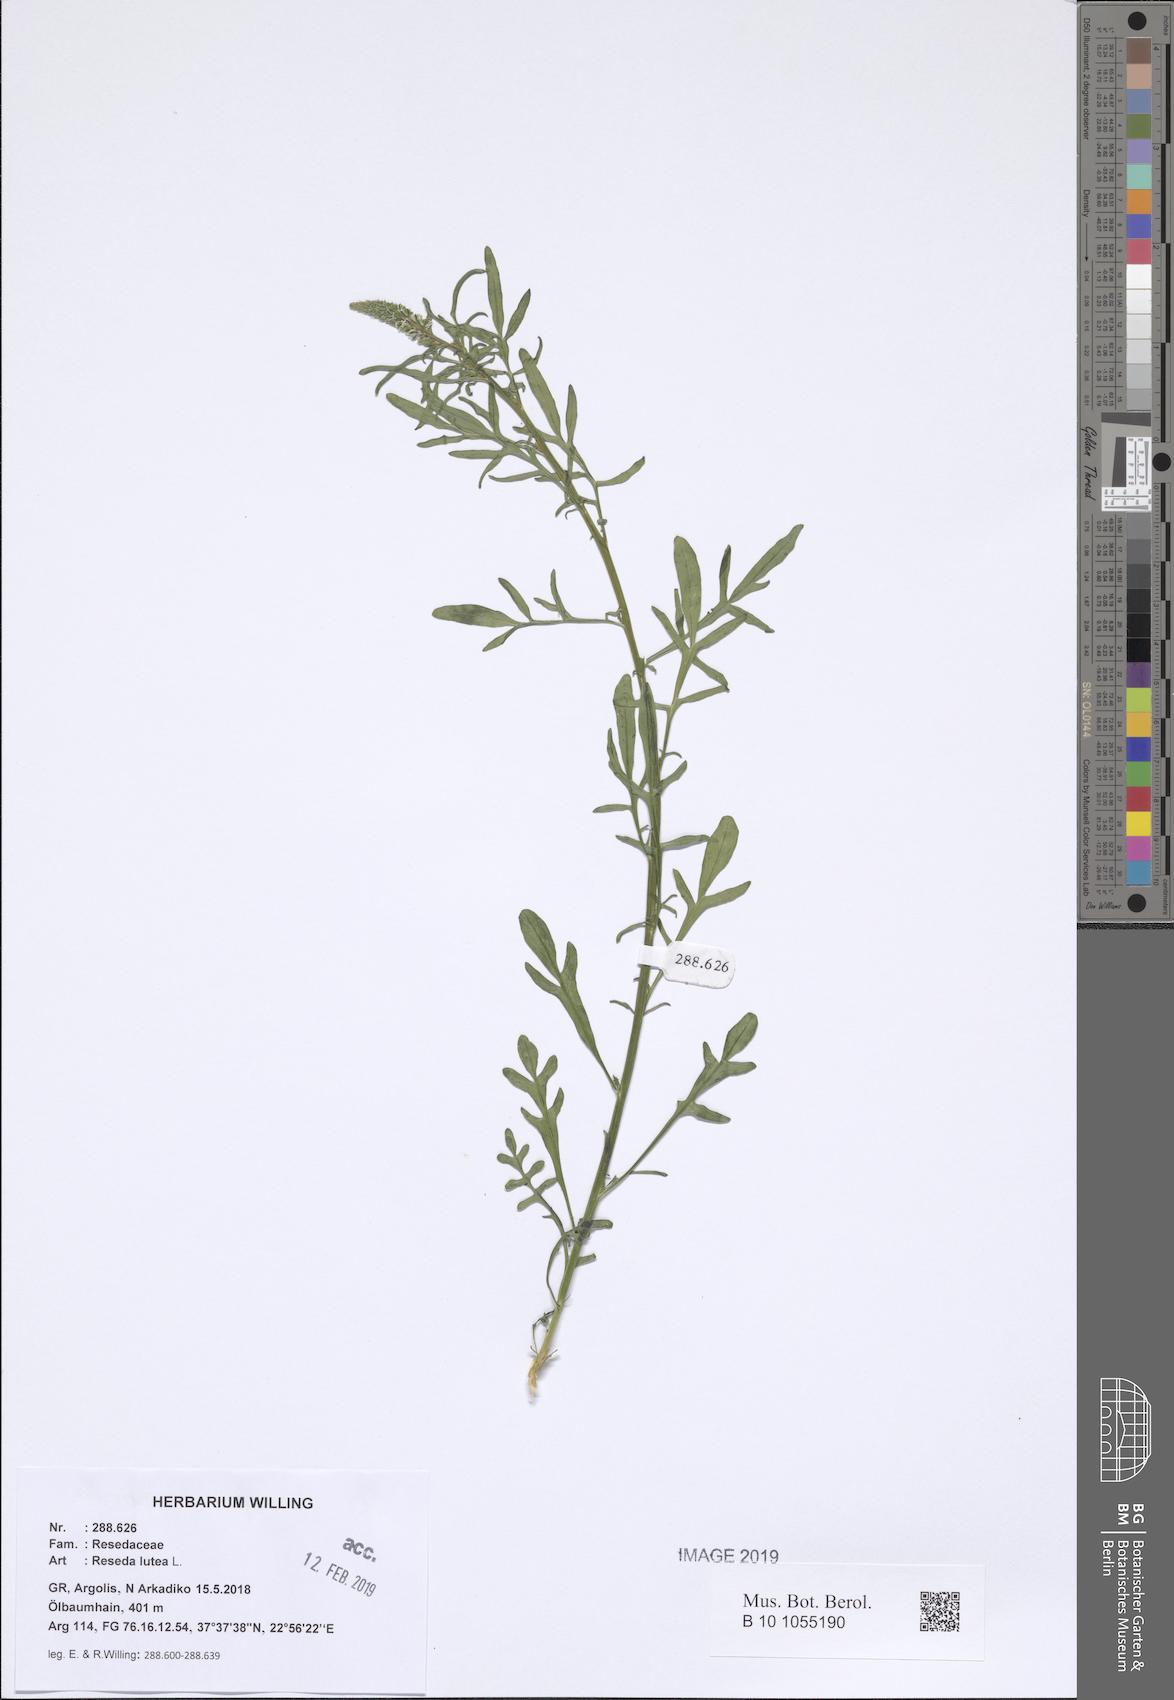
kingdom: Plantae
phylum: Tracheophyta
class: Magnoliopsida
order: Brassicales
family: Resedaceae
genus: Reseda
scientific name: Reseda lutea
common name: Wild mignonette
